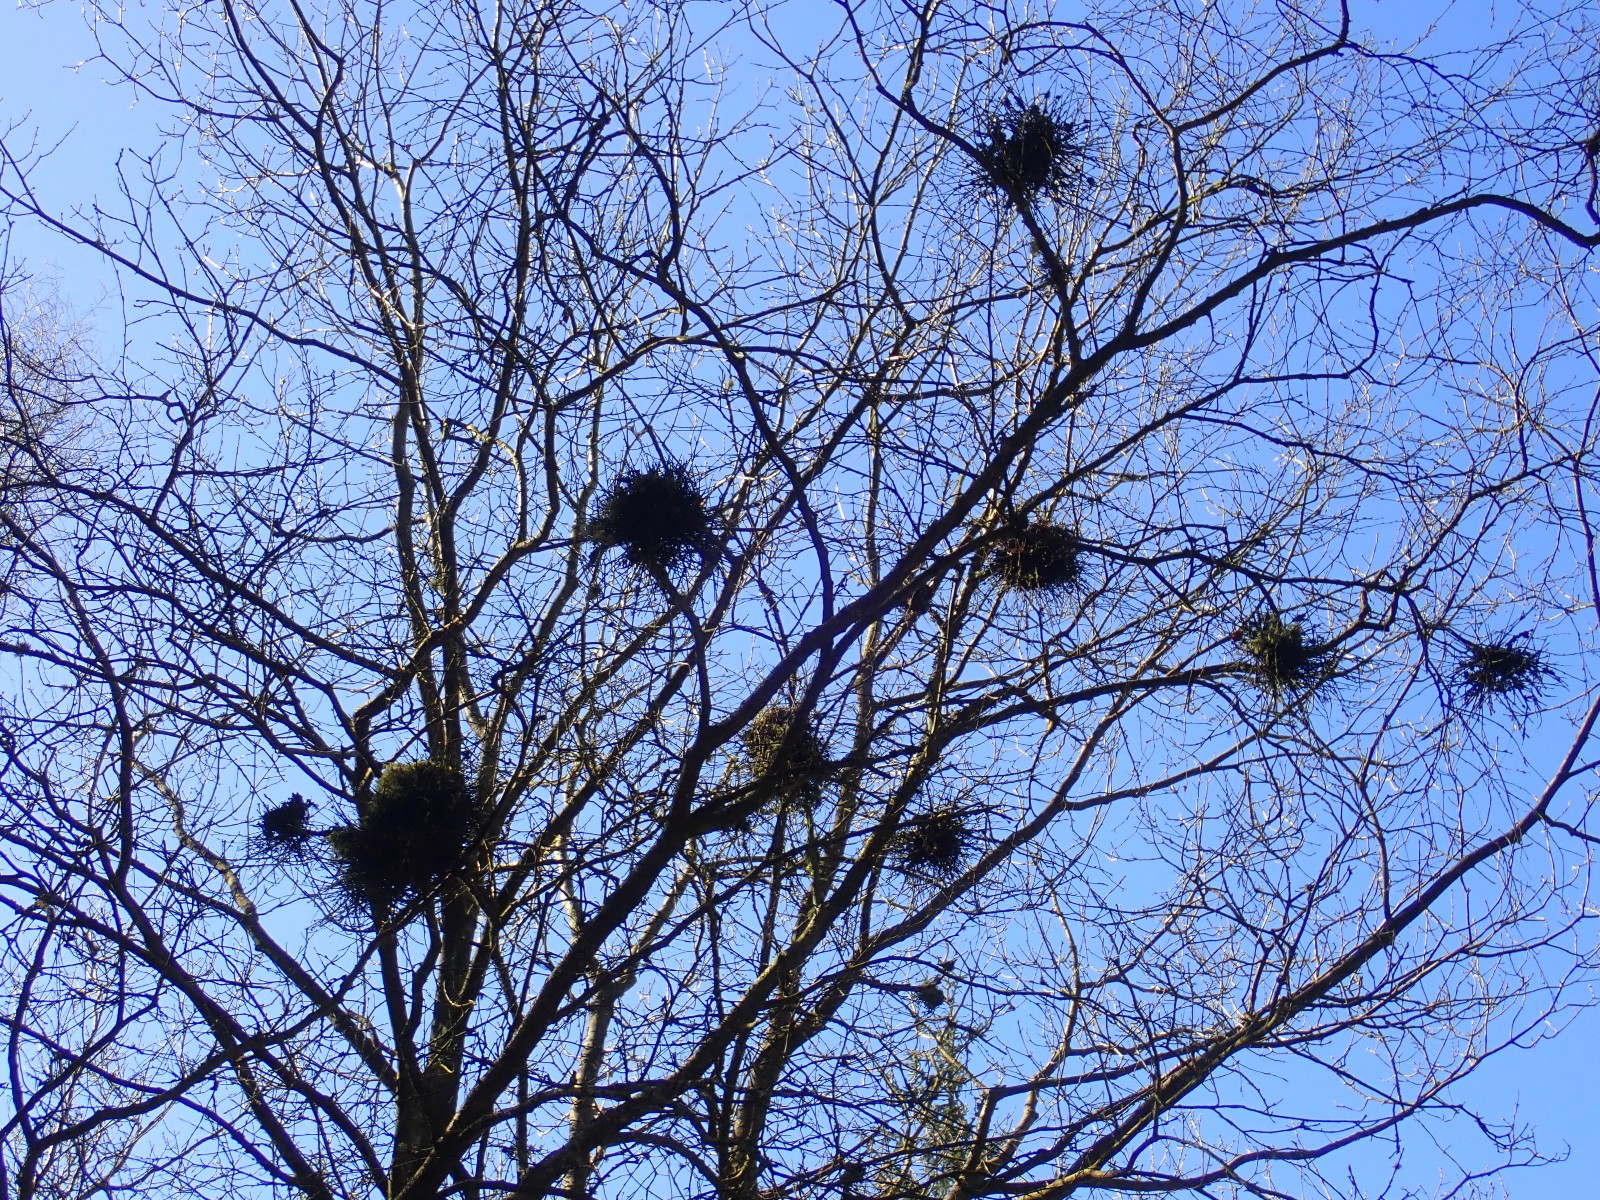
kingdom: Fungi
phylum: Ascomycota
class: Taphrinomycetes
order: Taphrinales
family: Taphrinaceae
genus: Taphrina
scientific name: Taphrina betulina
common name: hekse-sækdug
